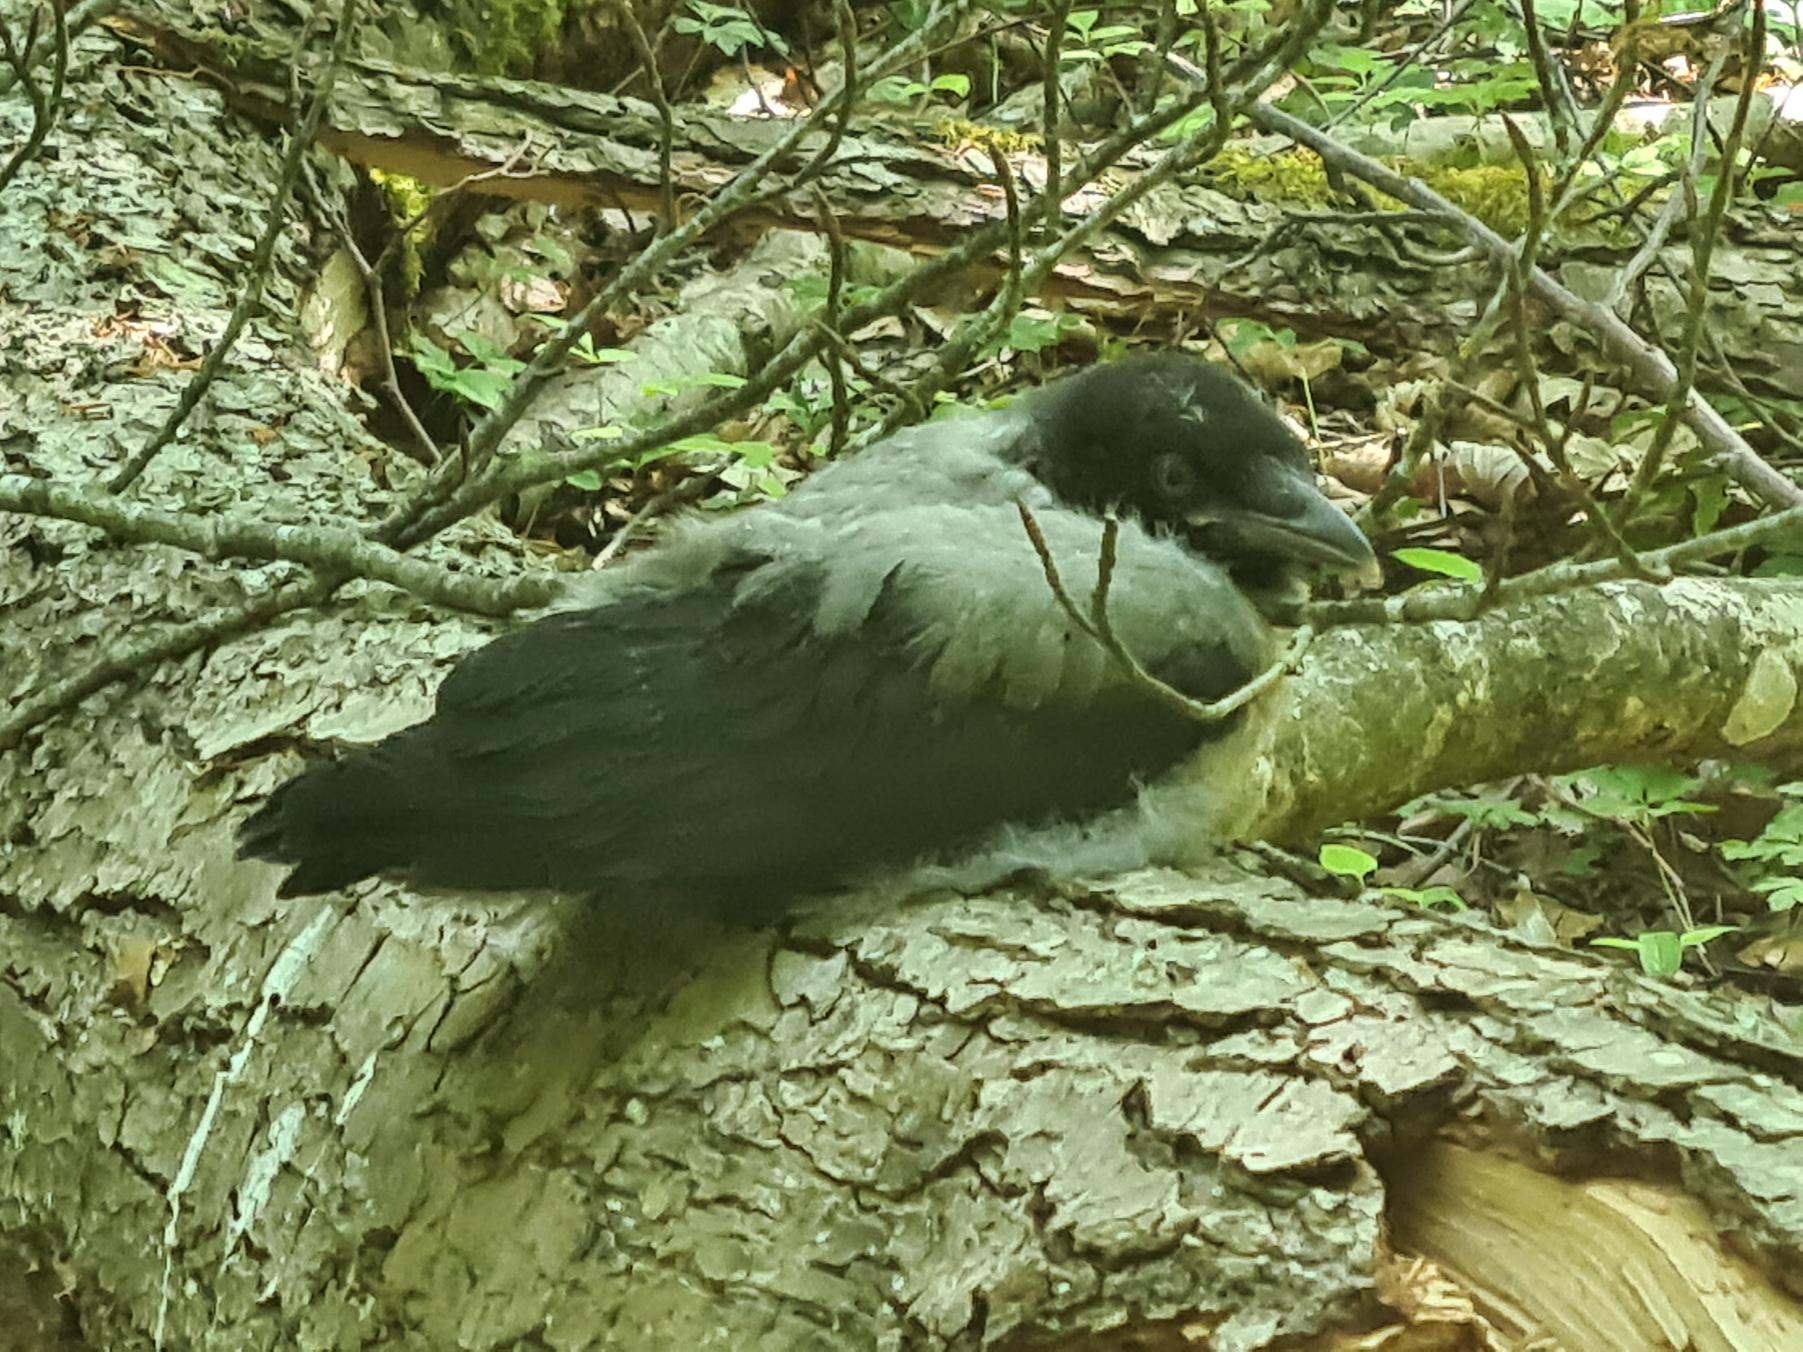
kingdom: Animalia
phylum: Chordata
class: Aves
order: Passeriformes
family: Corvidae
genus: Corvus
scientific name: Corvus cornix
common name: Gråkrage
